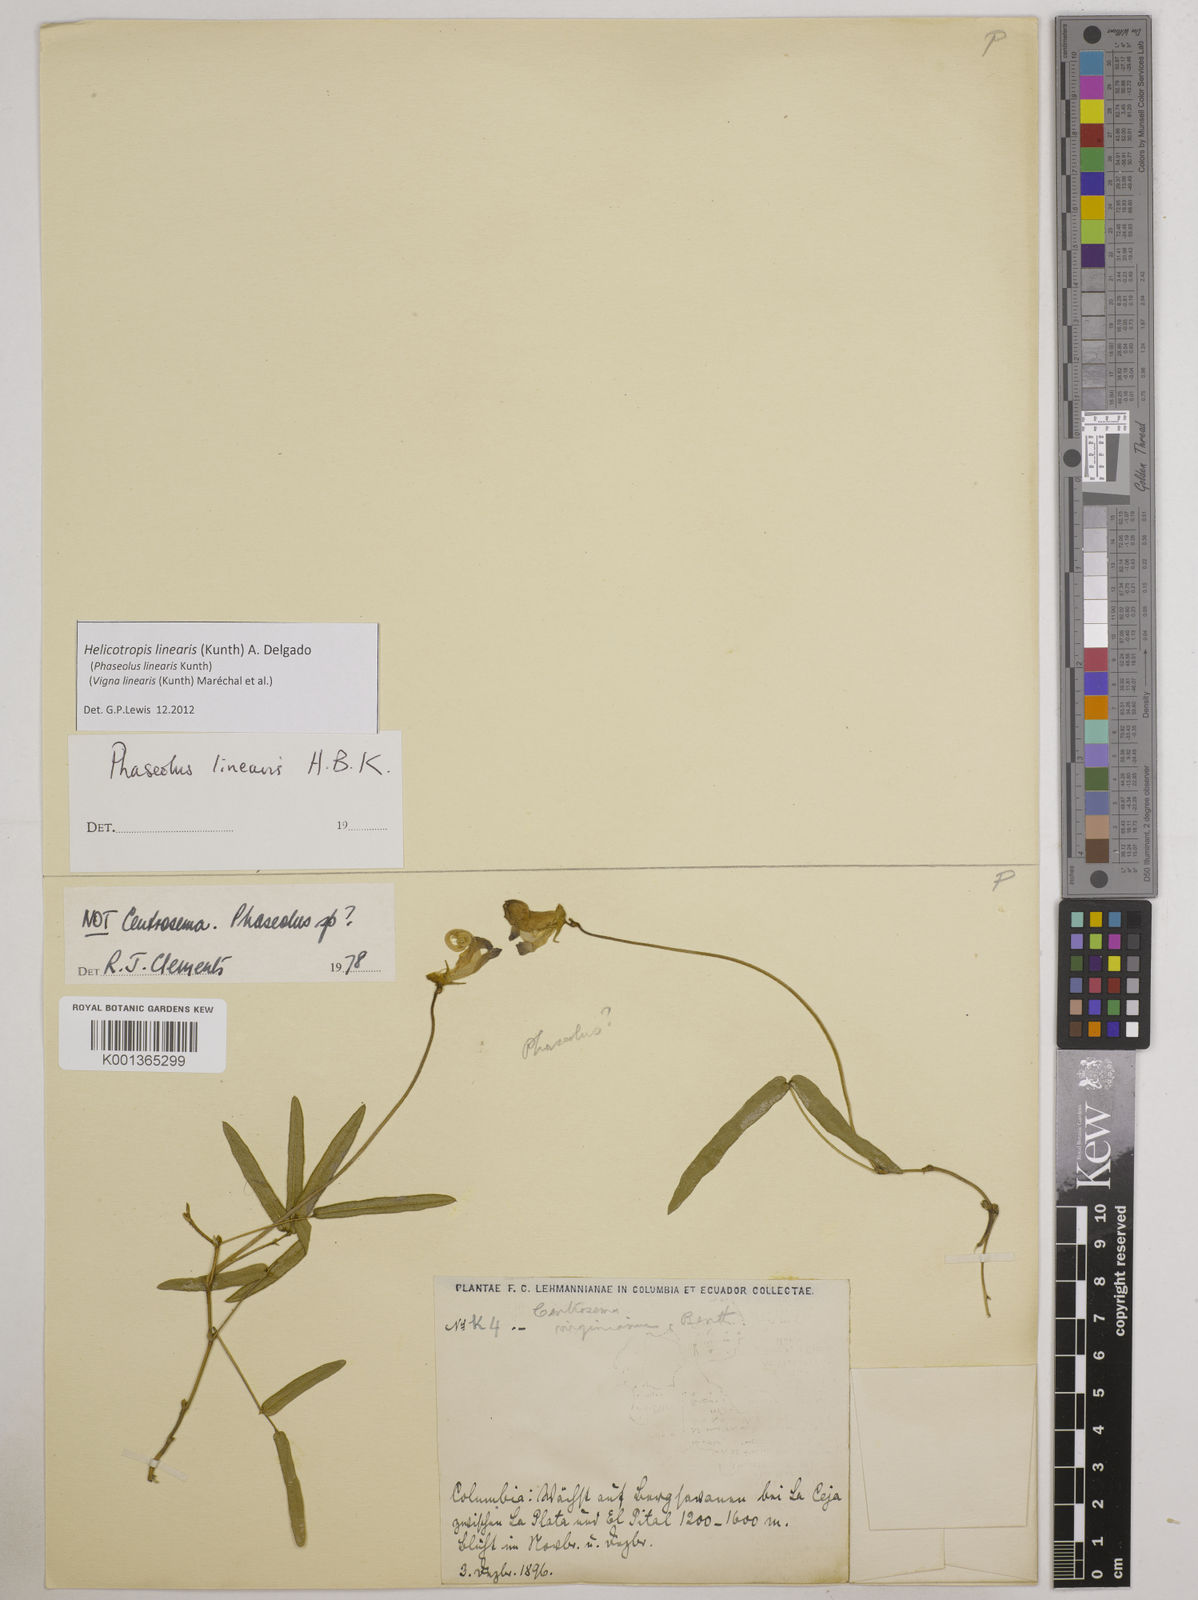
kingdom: Plantae
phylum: Tracheophyta
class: Magnoliopsida
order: Fabales
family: Fabaceae
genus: Helicotropis
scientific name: Helicotropis linearis
